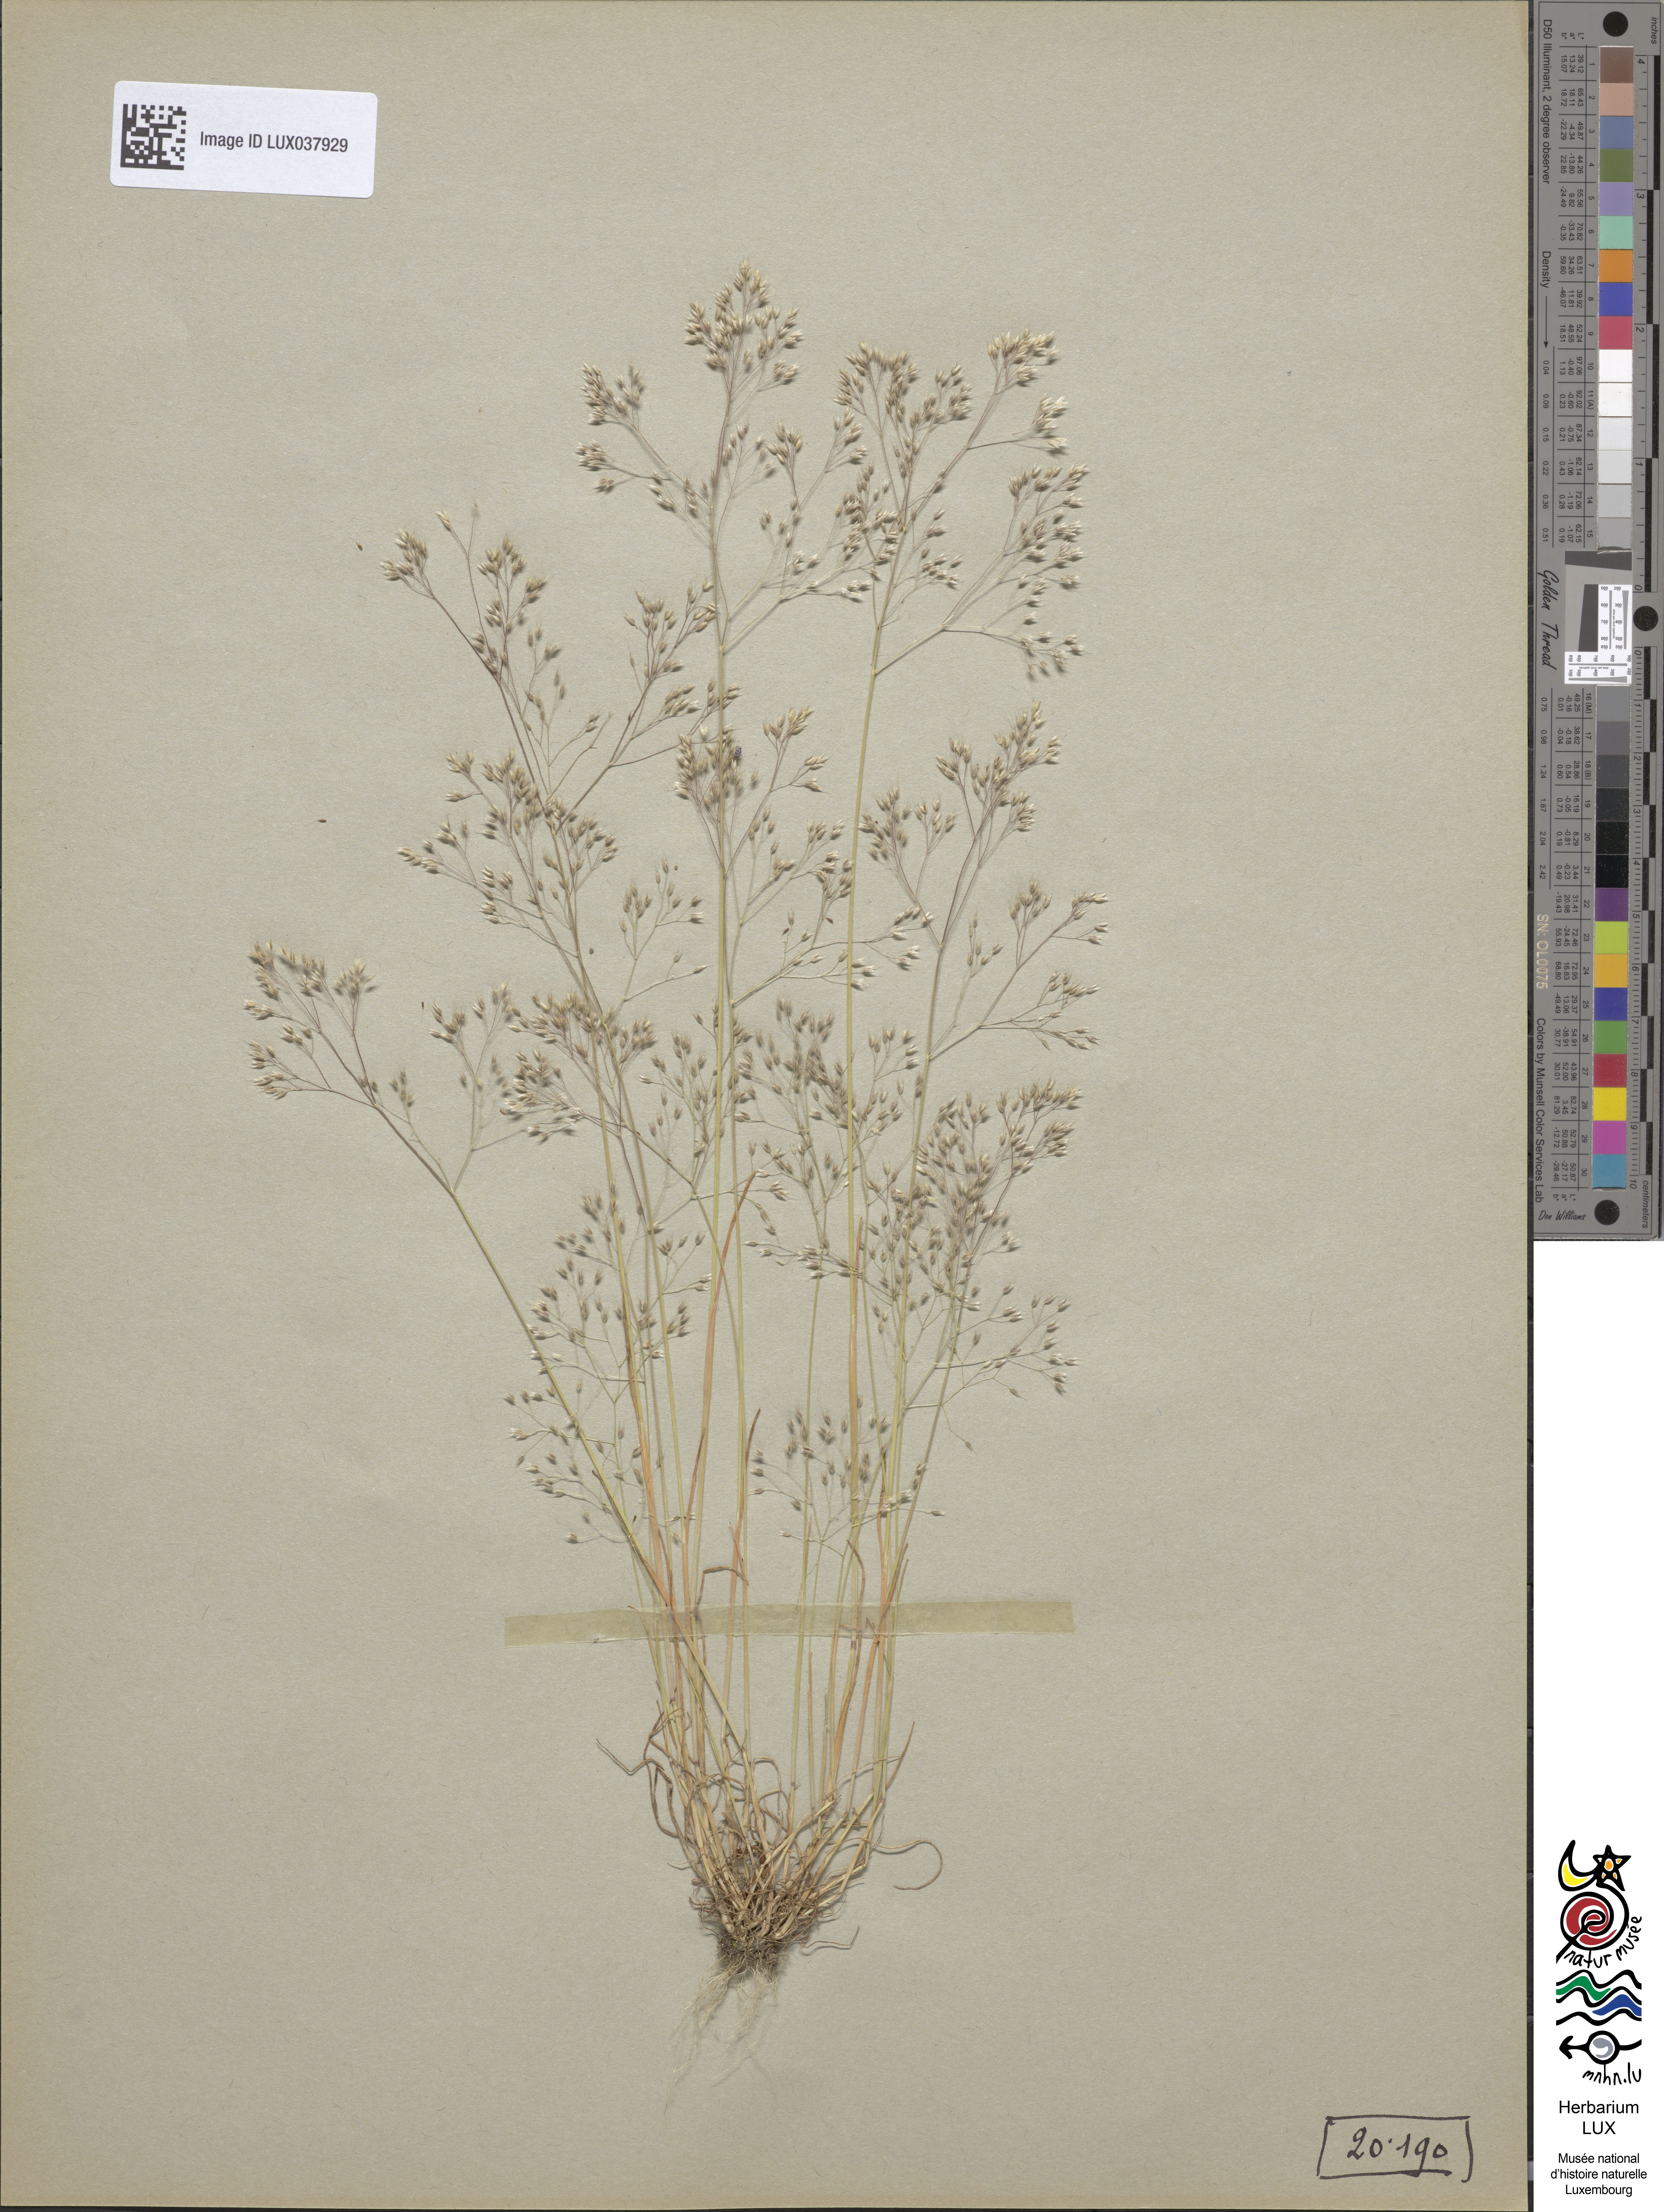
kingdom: Plantae
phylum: Tracheophyta
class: Liliopsida
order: Poales
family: Poaceae
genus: Aira
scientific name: Aira caryophyllea
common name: Silver hairgrass
